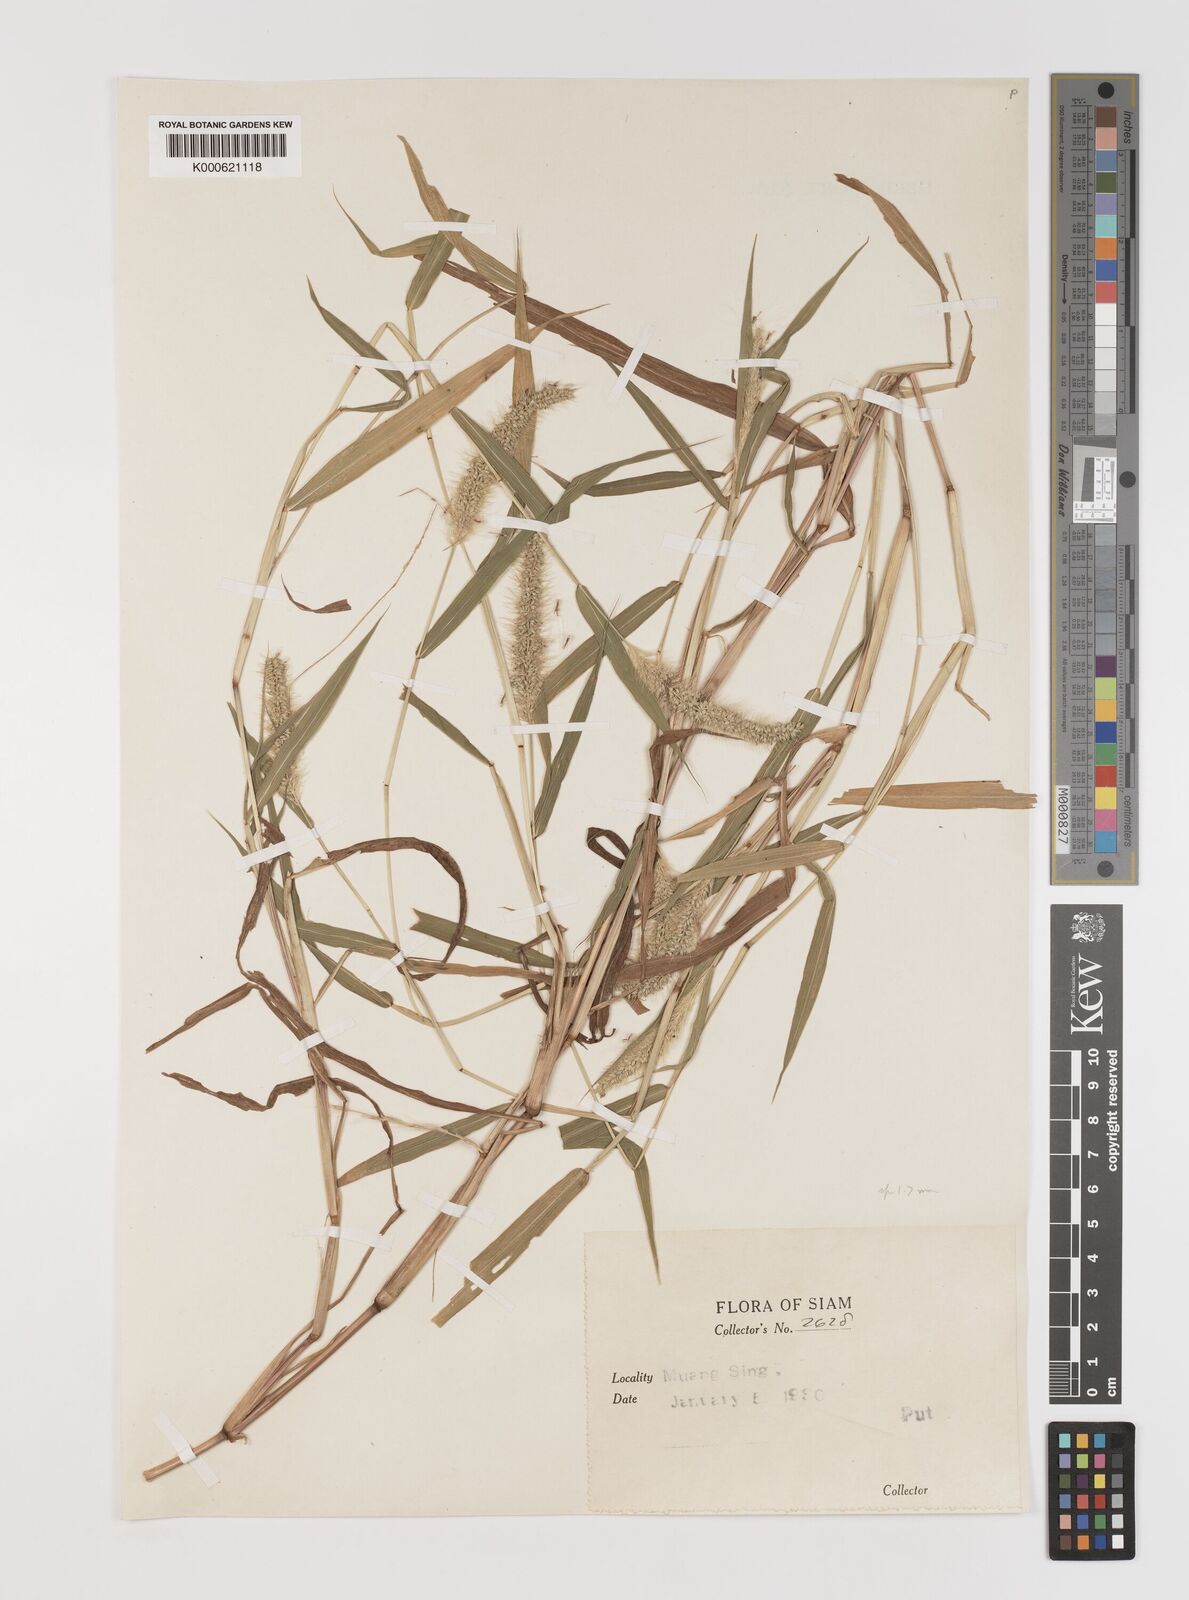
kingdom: Plantae
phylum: Tracheophyta
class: Liliopsida
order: Poales
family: Poaceae
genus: Setaria
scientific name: Setaria verticillata
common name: Hooked bristlegrass
